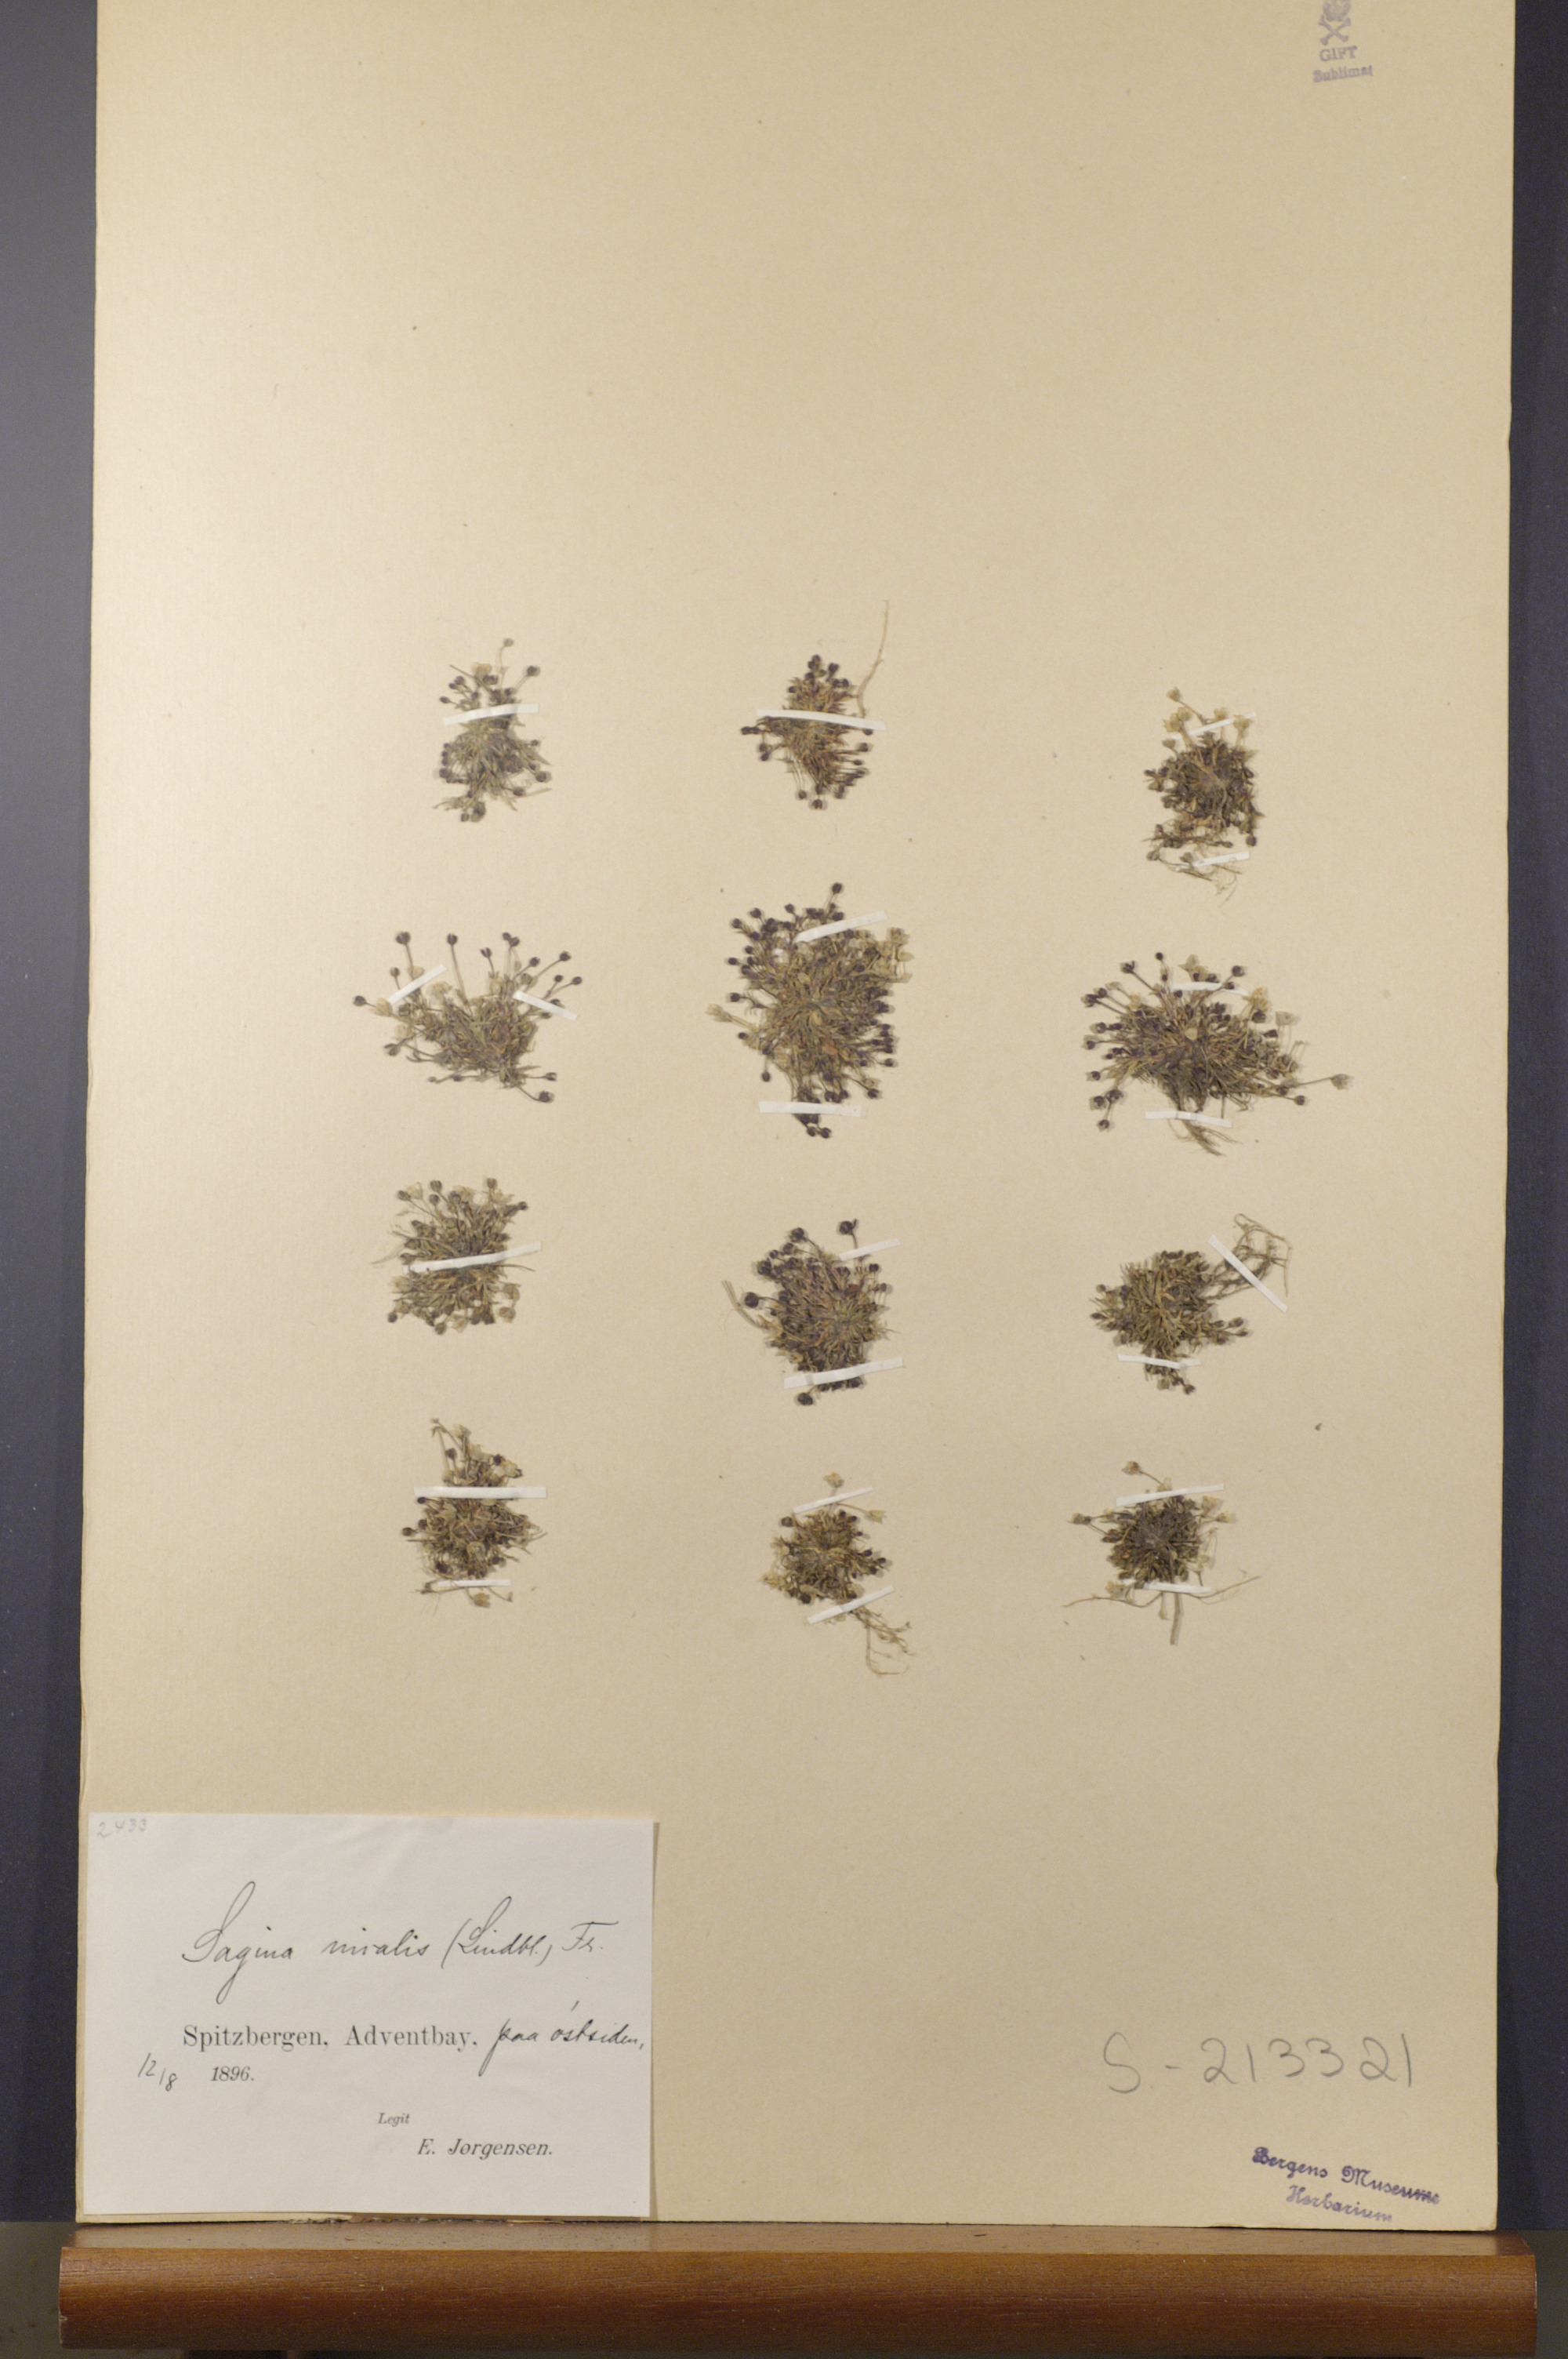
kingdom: Plantae
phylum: Tracheophyta
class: Magnoliopsida
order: Caryophyllales
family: Caryophyllaceae
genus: Sagina
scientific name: Sagina nivalis
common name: Snow pearlwort
